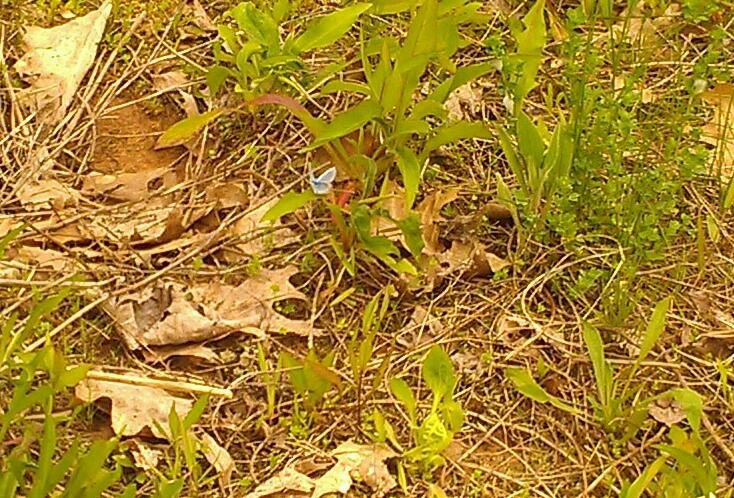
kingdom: Animalia
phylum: Arthropoda
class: Insecta
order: Lepidoptera
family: Lycaenidae
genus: Glaucopsyche
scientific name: Glaucopsyche lygdamus
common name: Silvery Blue
